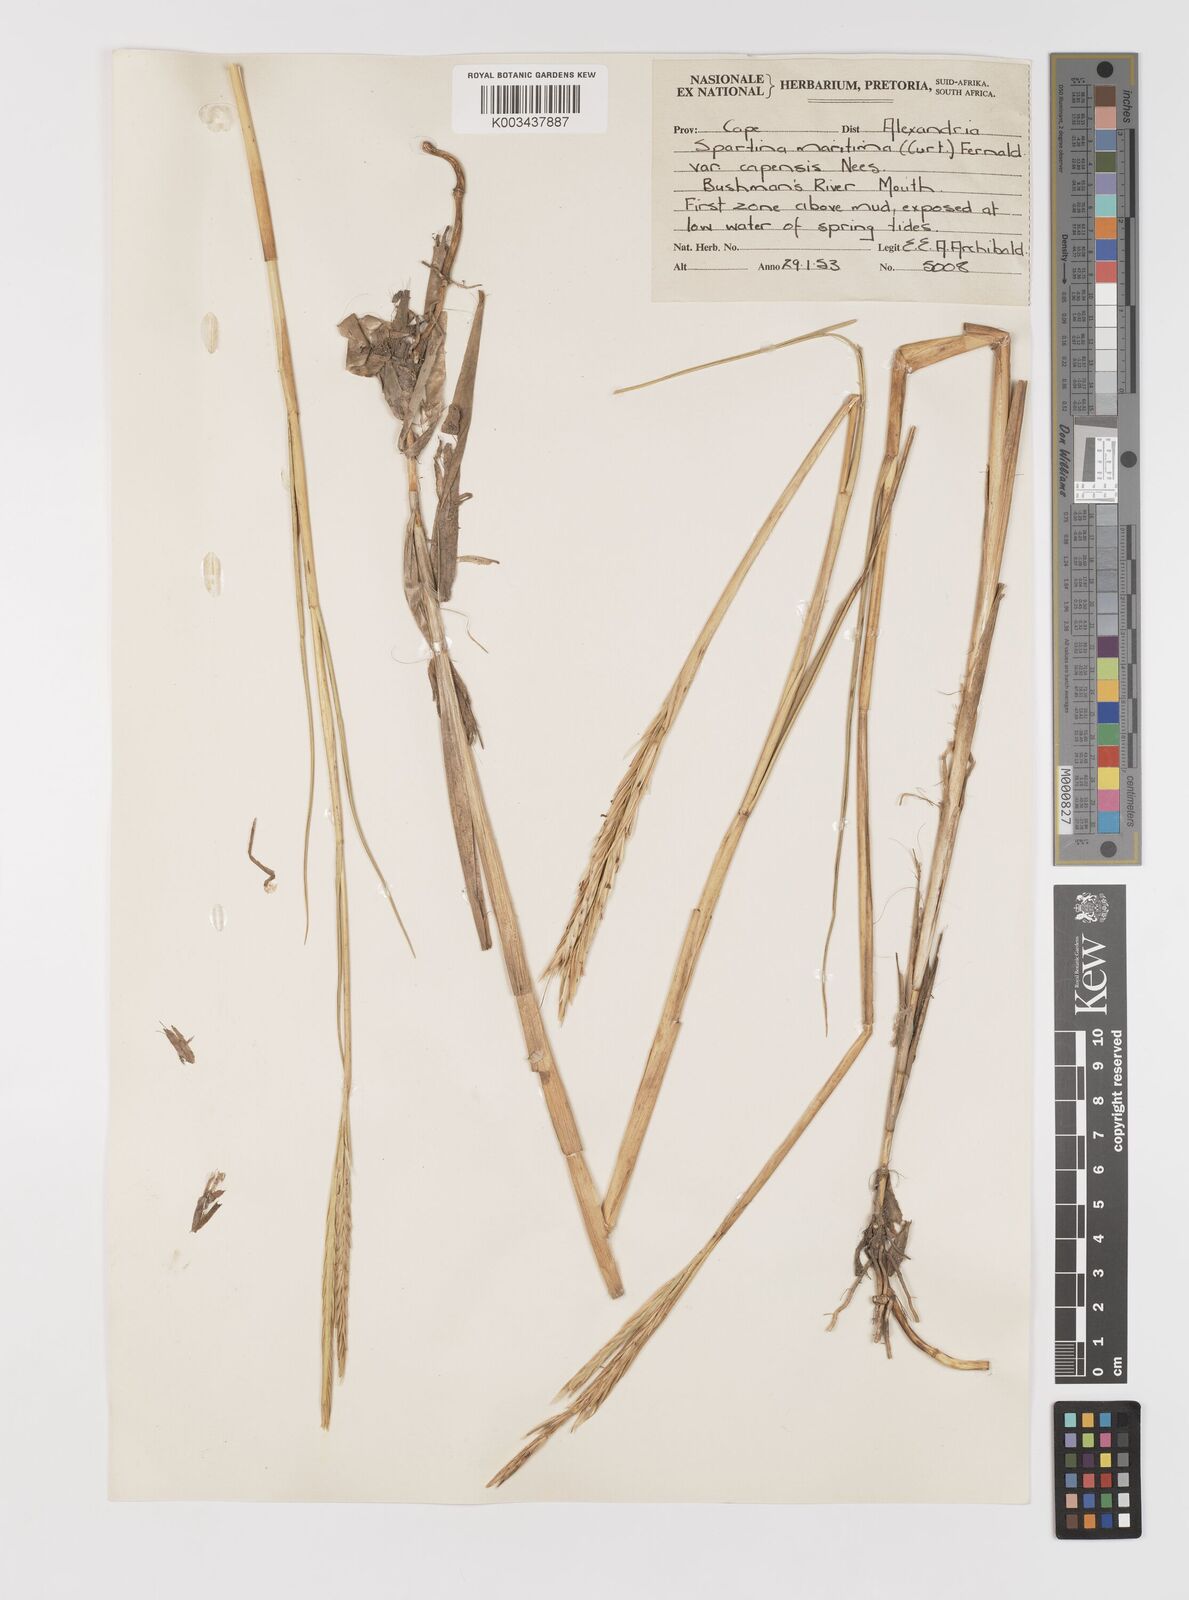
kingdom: Plantae
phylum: Tracheophyta
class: Liliopsida
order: Poales
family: Poaceae
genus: Sporobolus
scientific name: Sporobolus maritimus
